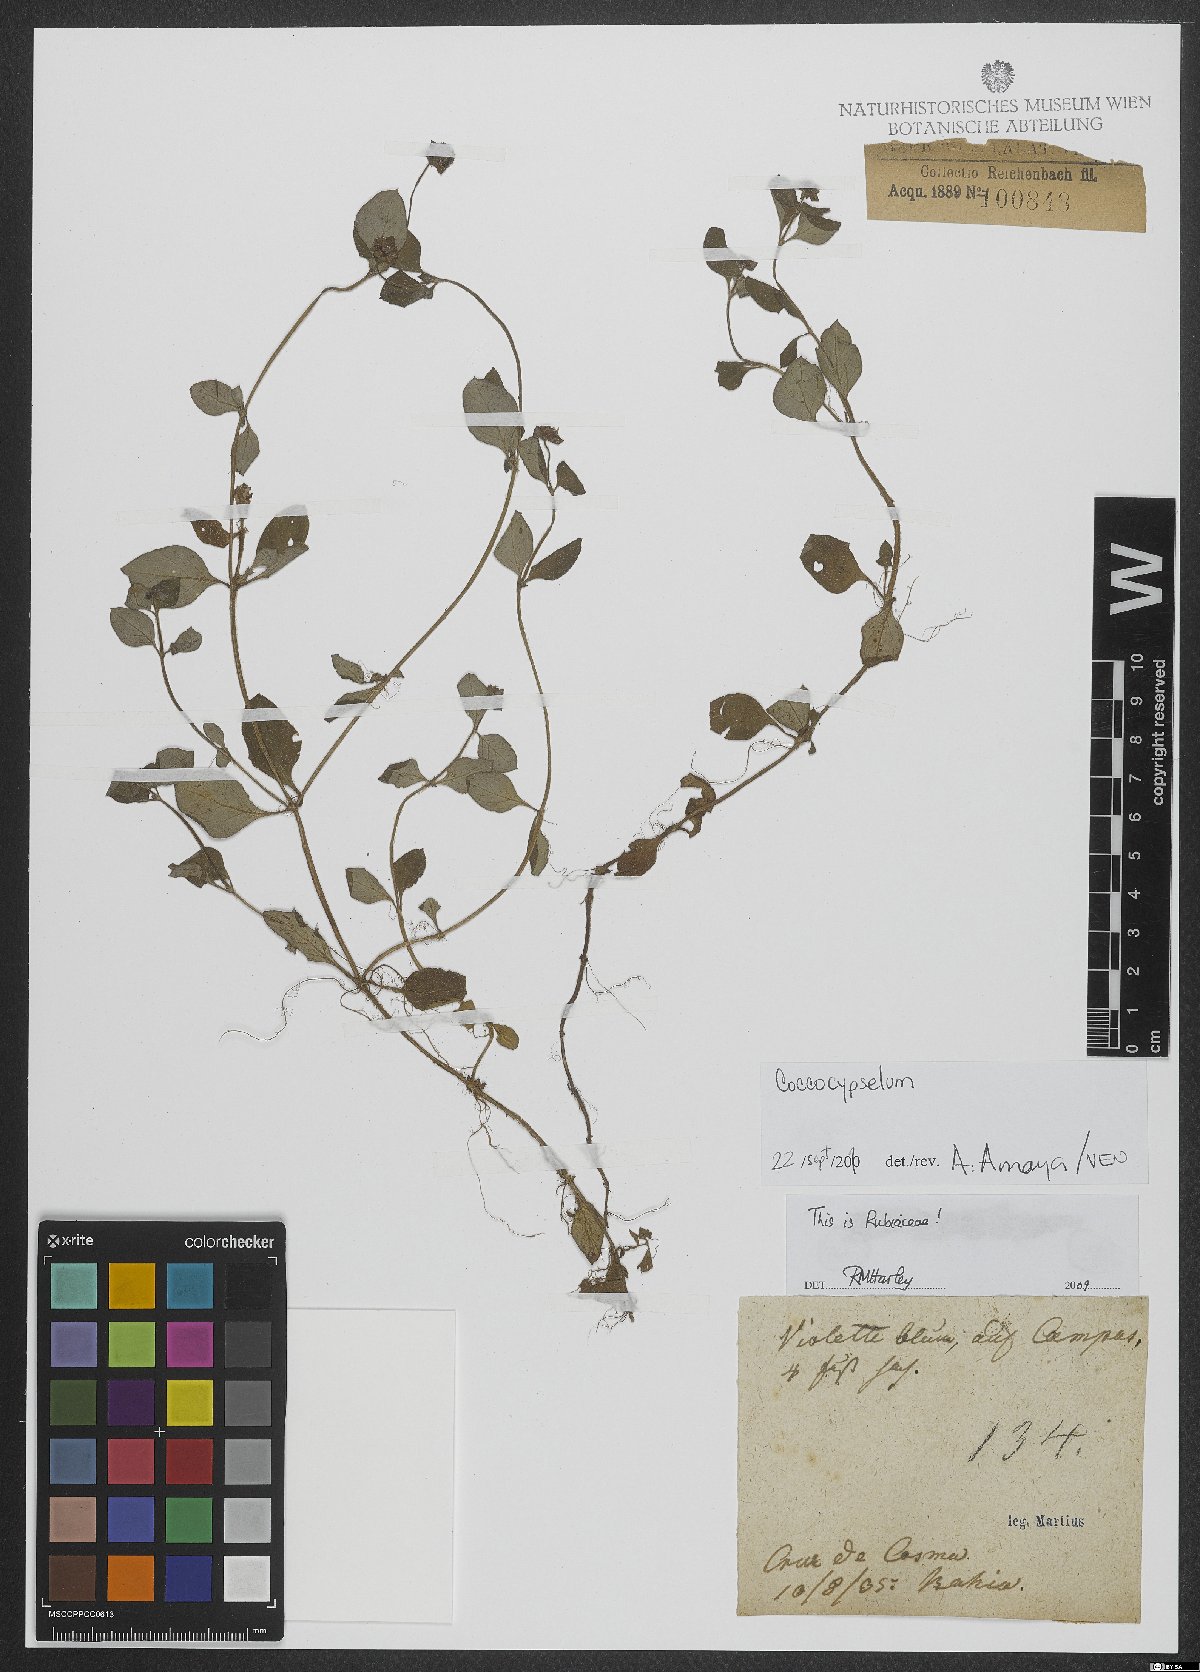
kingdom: Plantae
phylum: Tracheophyta
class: Magnoliopsida
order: Gentianales
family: Rubiaceae
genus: Coccocypselum
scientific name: Coccocypselum
